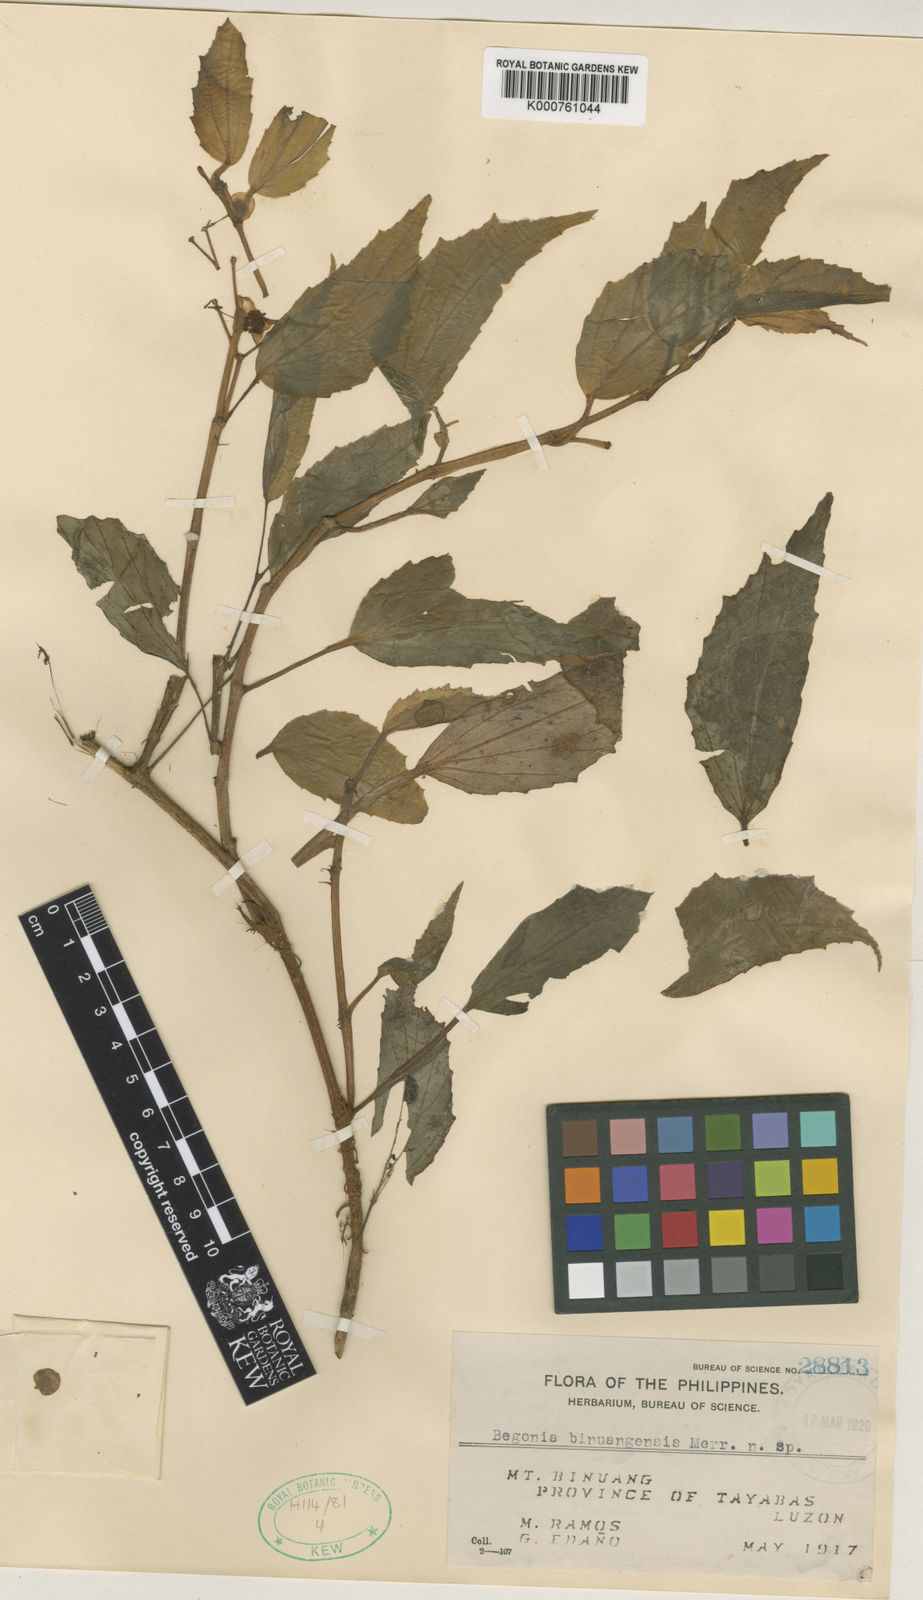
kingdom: Plantae
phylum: Tracheophyta
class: Magnoliopsida
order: Cucurbitales
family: Begoniaceae
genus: Begonia
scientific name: Begonia binuangensis
